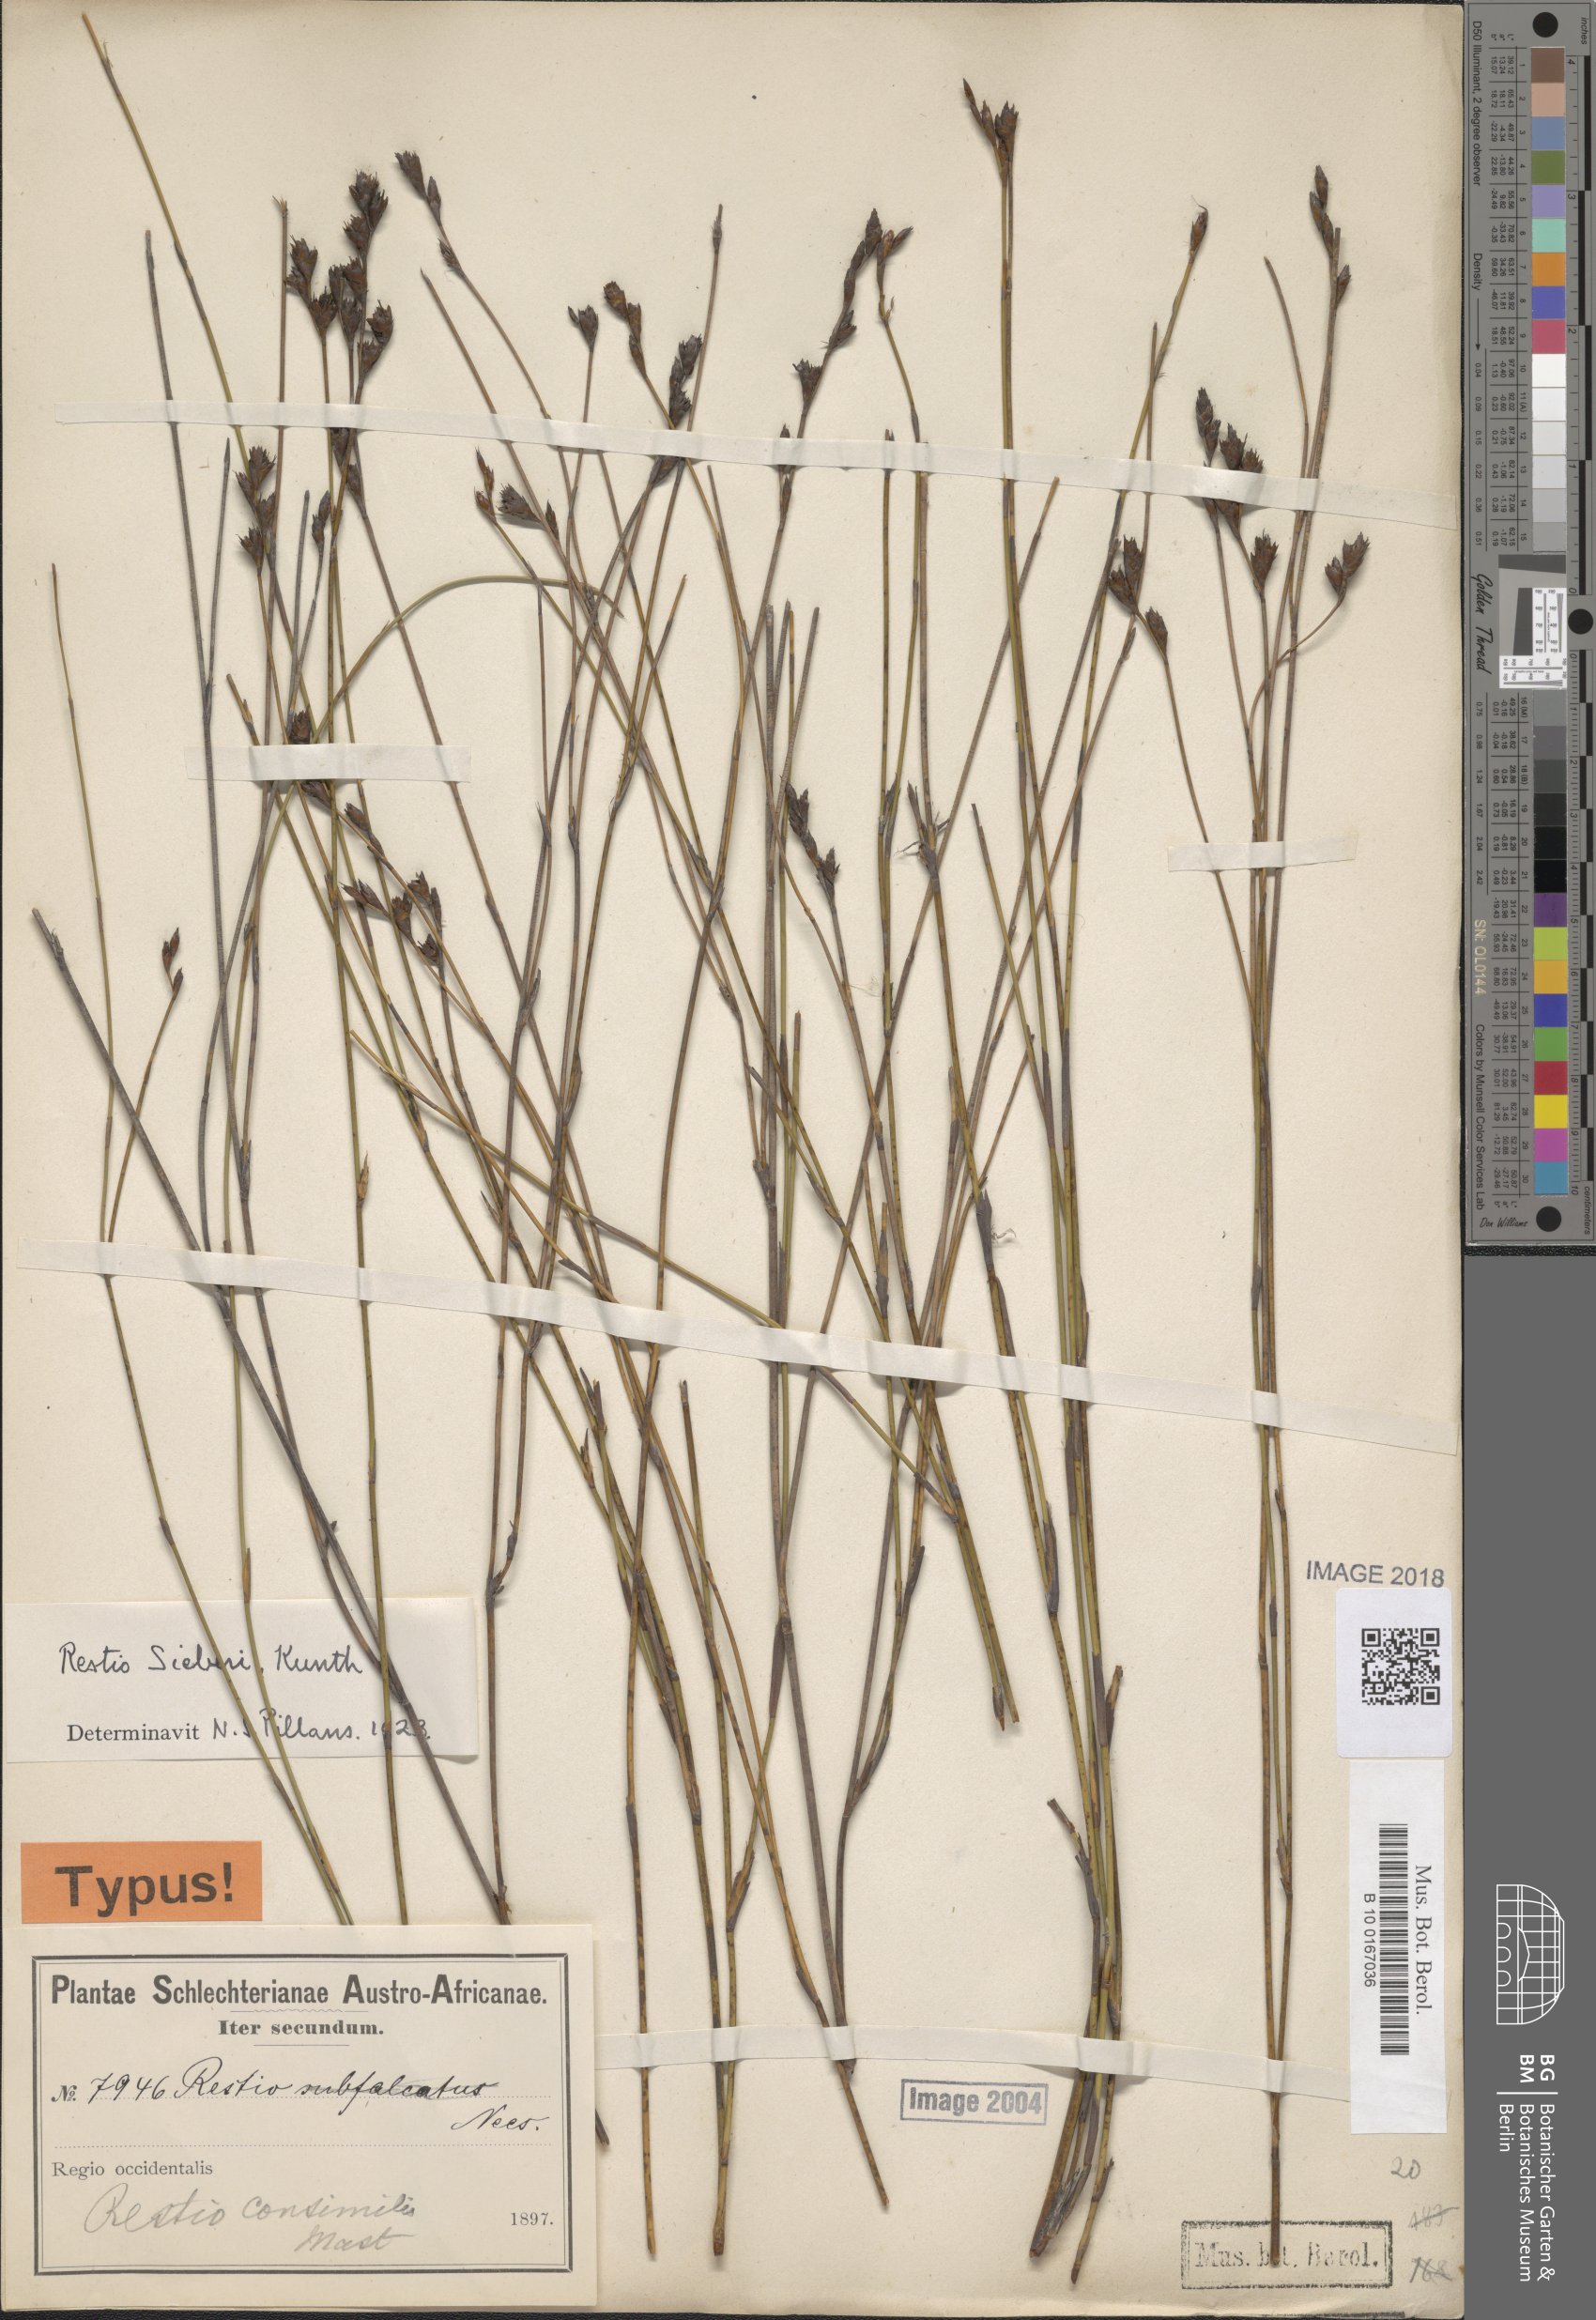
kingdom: Plantae
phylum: Tracheophyta
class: Liliopsida
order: Poales
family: Restionaceae
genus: Restio
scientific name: Restio sieberi
